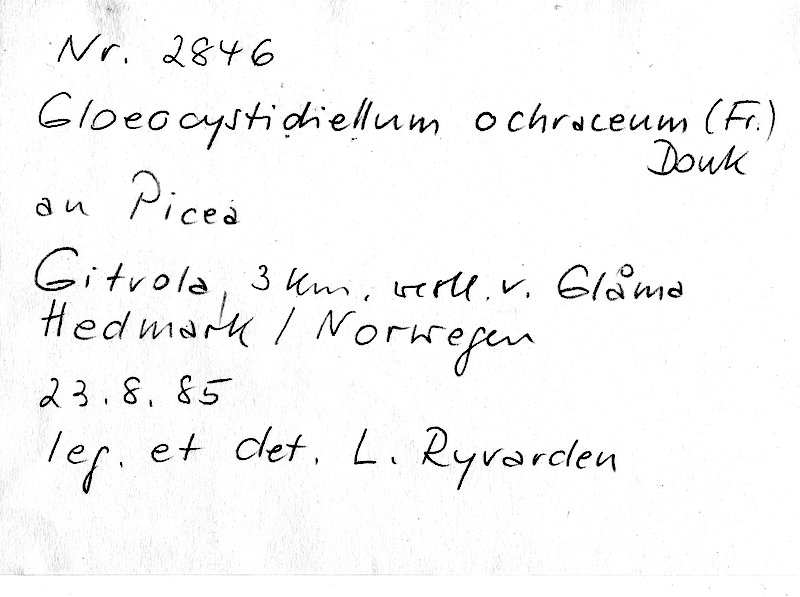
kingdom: Plantae
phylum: Tracheophyta
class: Pinopsida
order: Pinales
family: Pinaceae
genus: Picea
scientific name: Picea
